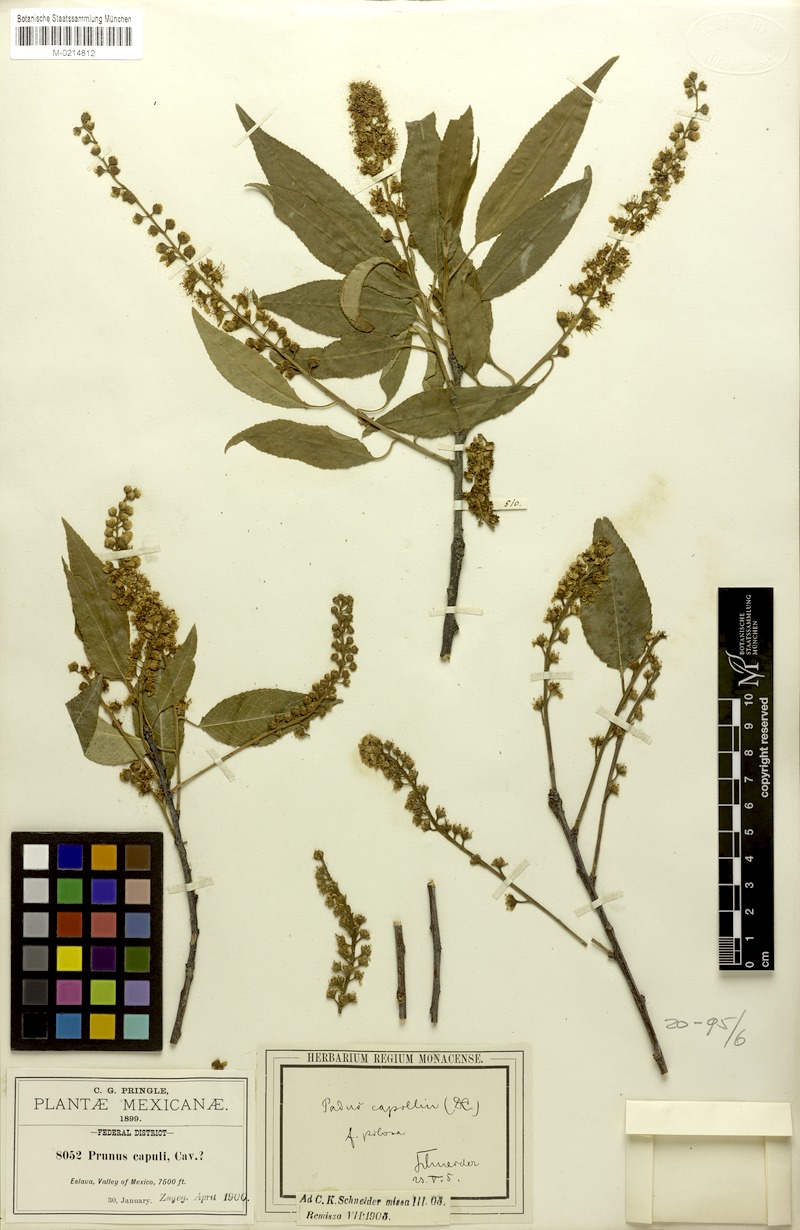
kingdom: Plantae
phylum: Tracheophyta
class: Magnoliopsida
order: Rosales
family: Rosaceae
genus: Prunus
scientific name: Prunus serotina
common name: Black cherry
